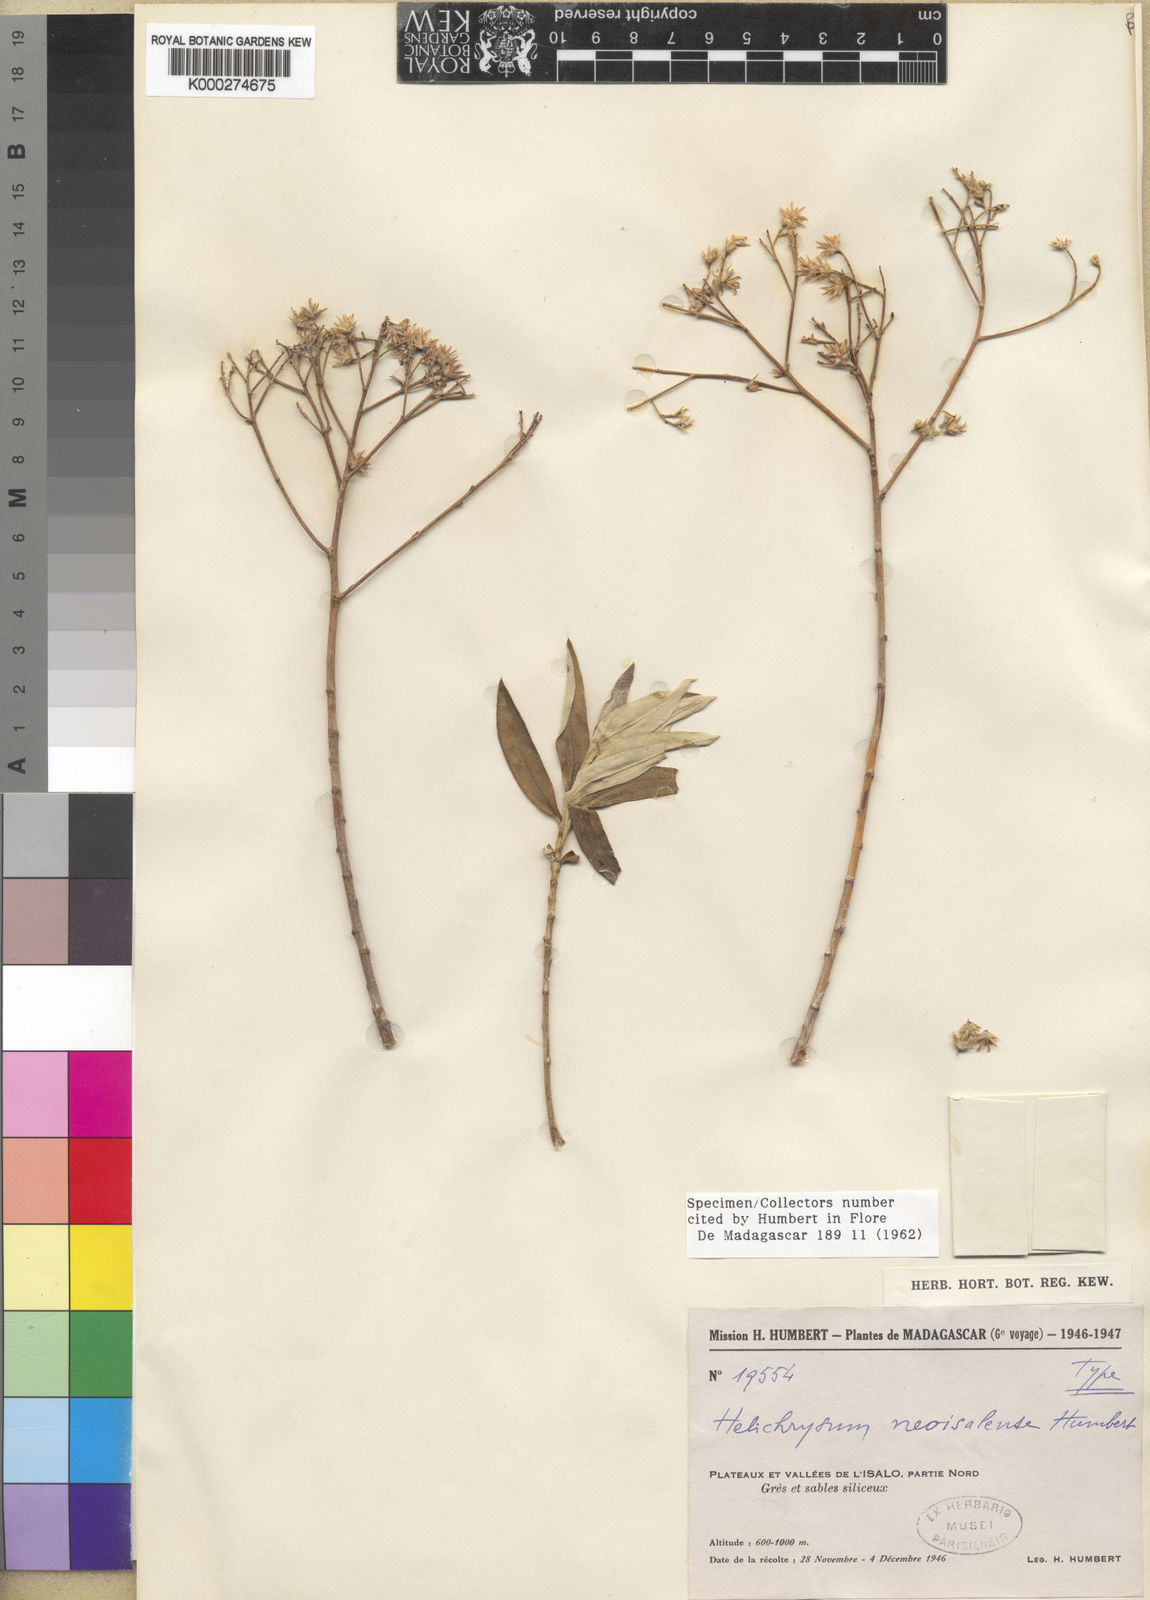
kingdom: Plantae
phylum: Tracheophyta
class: Magnoliopsida
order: Asterales
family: Asteraceae
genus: Helichrysum
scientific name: Helichrysum neoisalense
